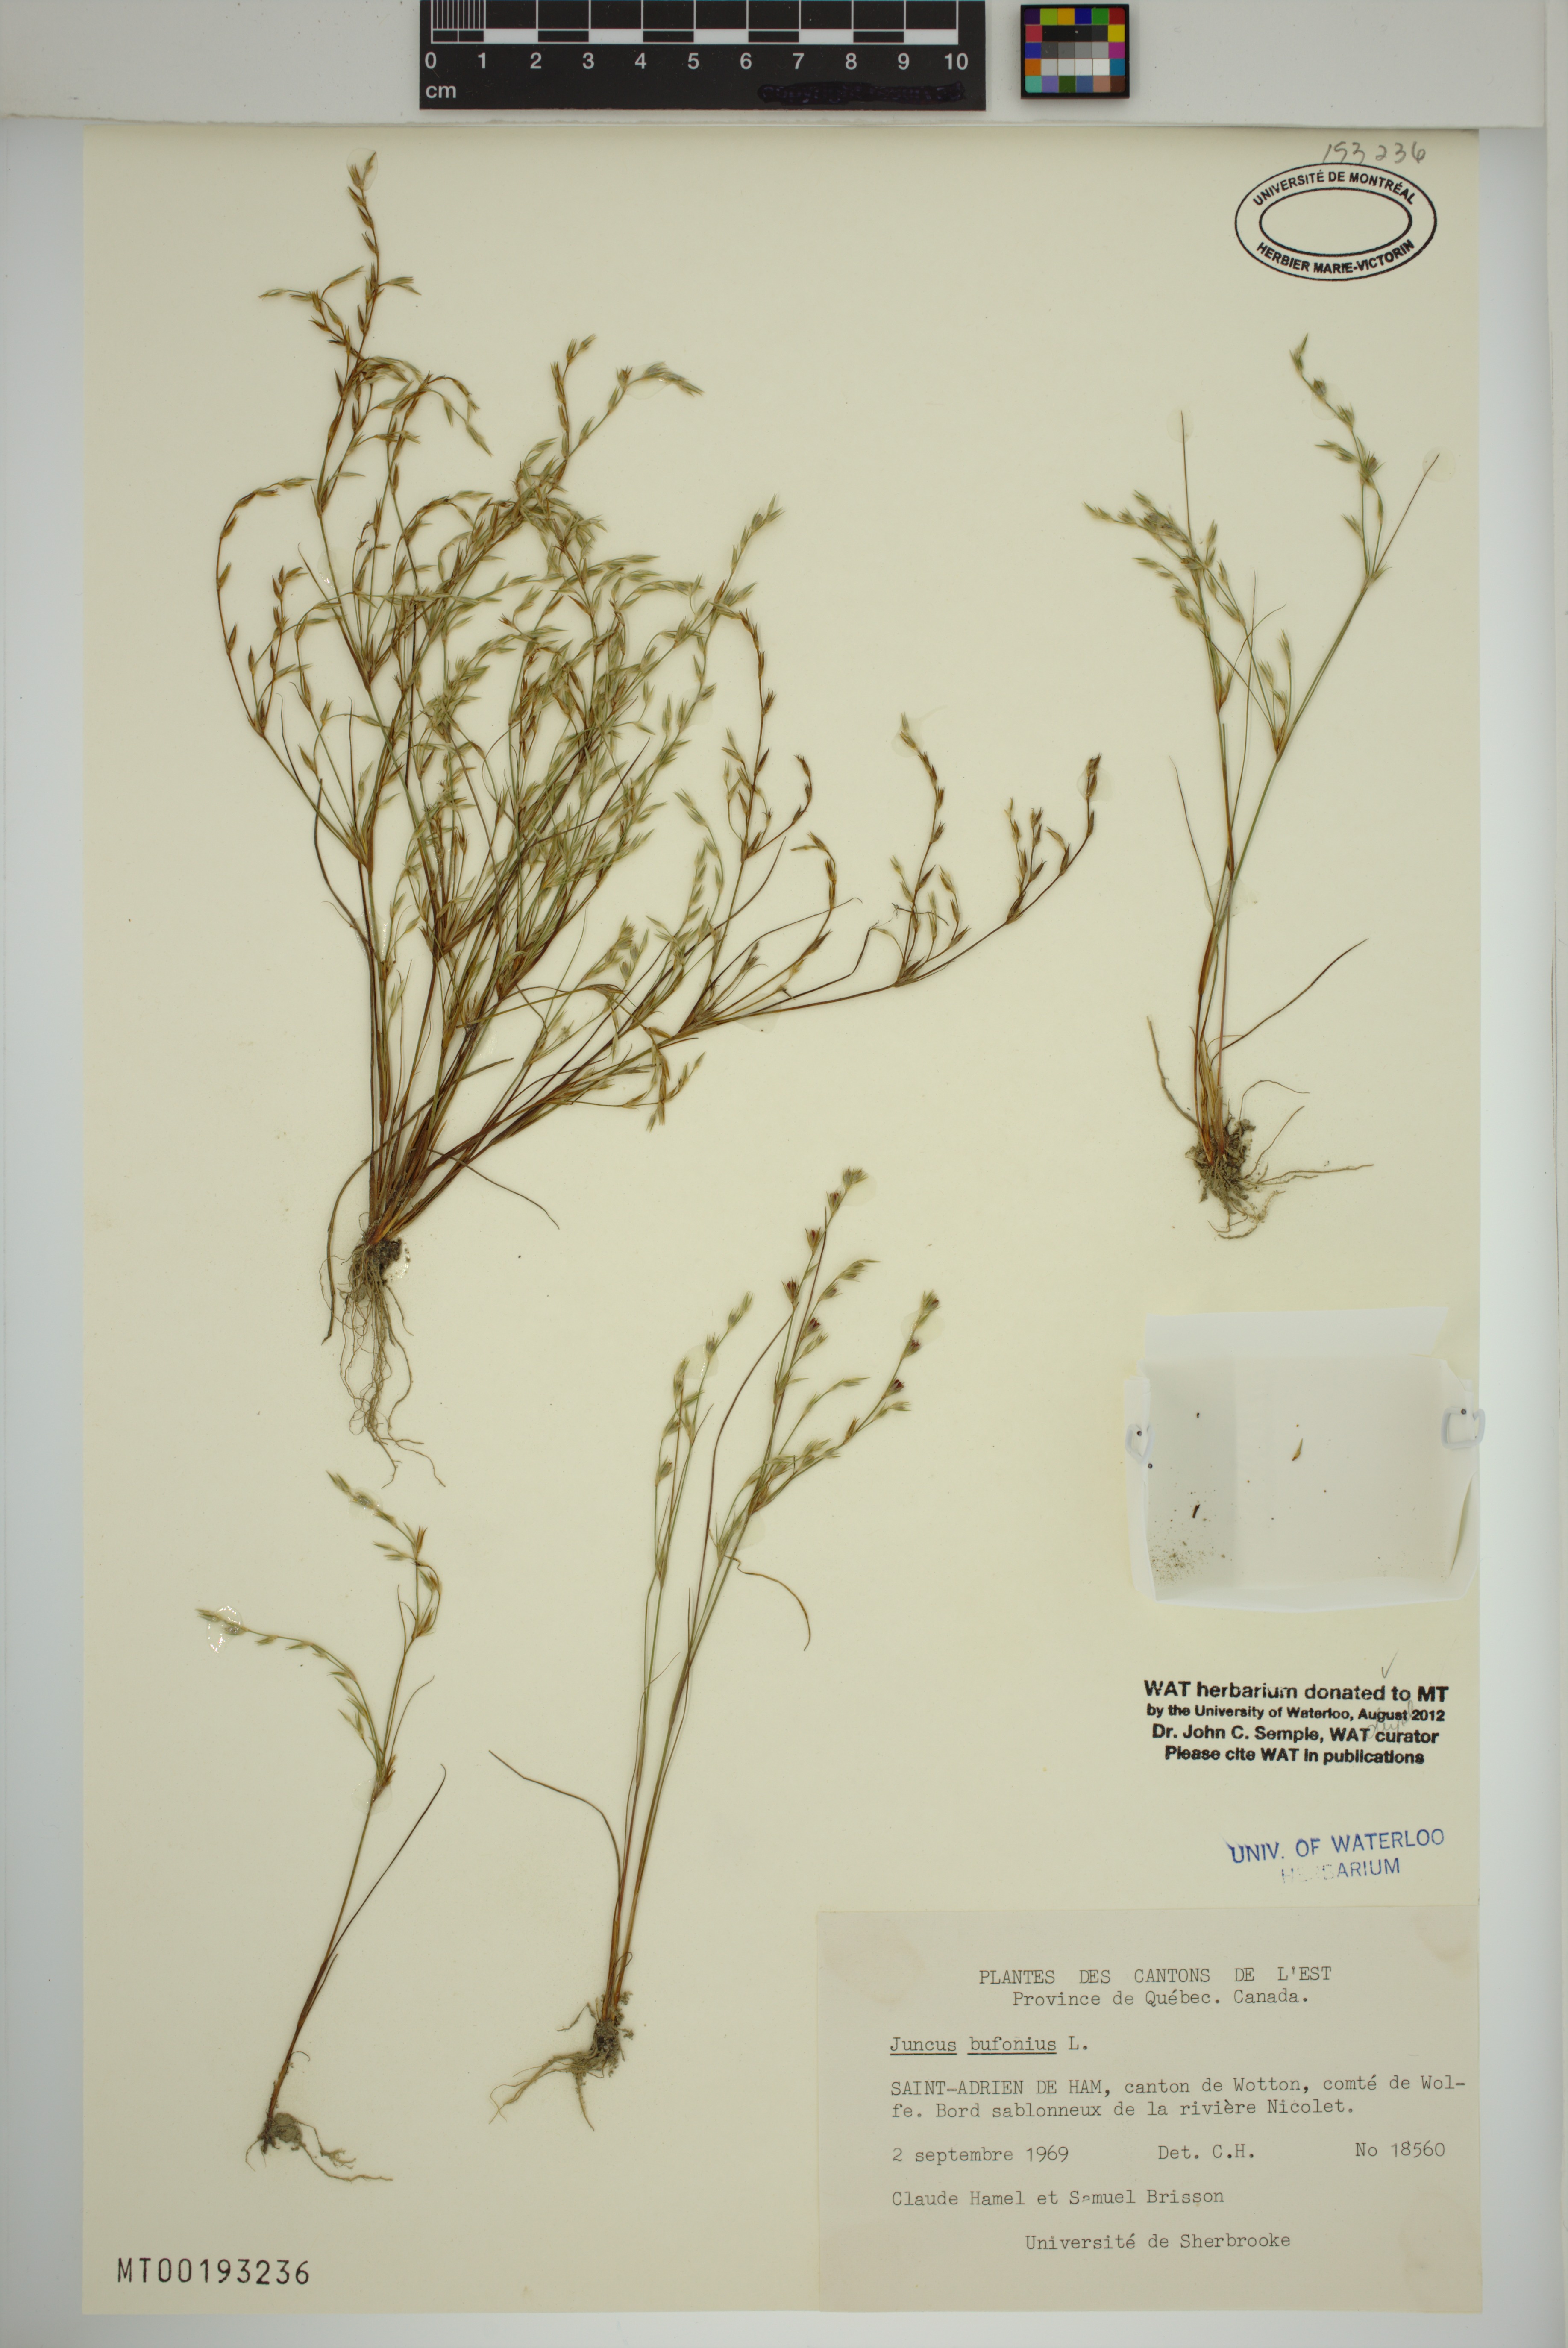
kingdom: Plantae
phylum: Tracheophyta
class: Liliopsida
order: Poales
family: Juncaceae
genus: Juncus
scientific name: Juncus bufonius
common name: Toad rush
